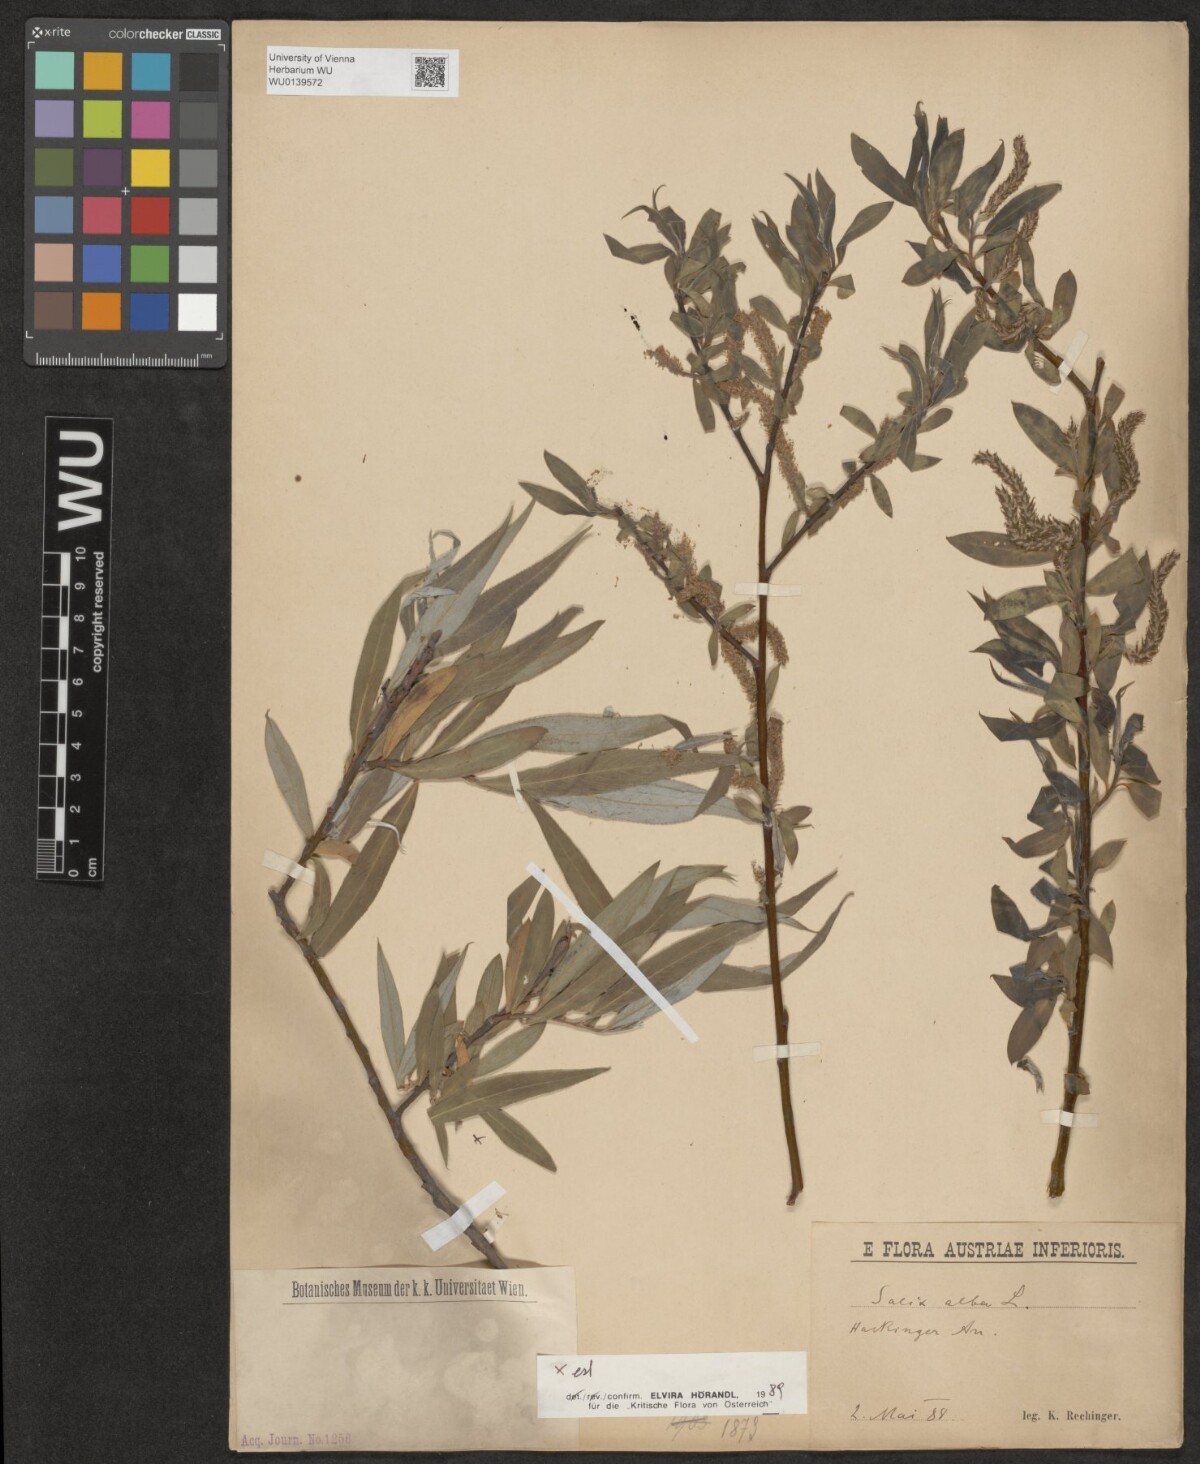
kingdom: Plantae
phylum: Tracheophyta
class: Magnoliopsida
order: Malpighiales
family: Salicaceae
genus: Salix
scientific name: Salix rubens
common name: Hybrid crack willow
